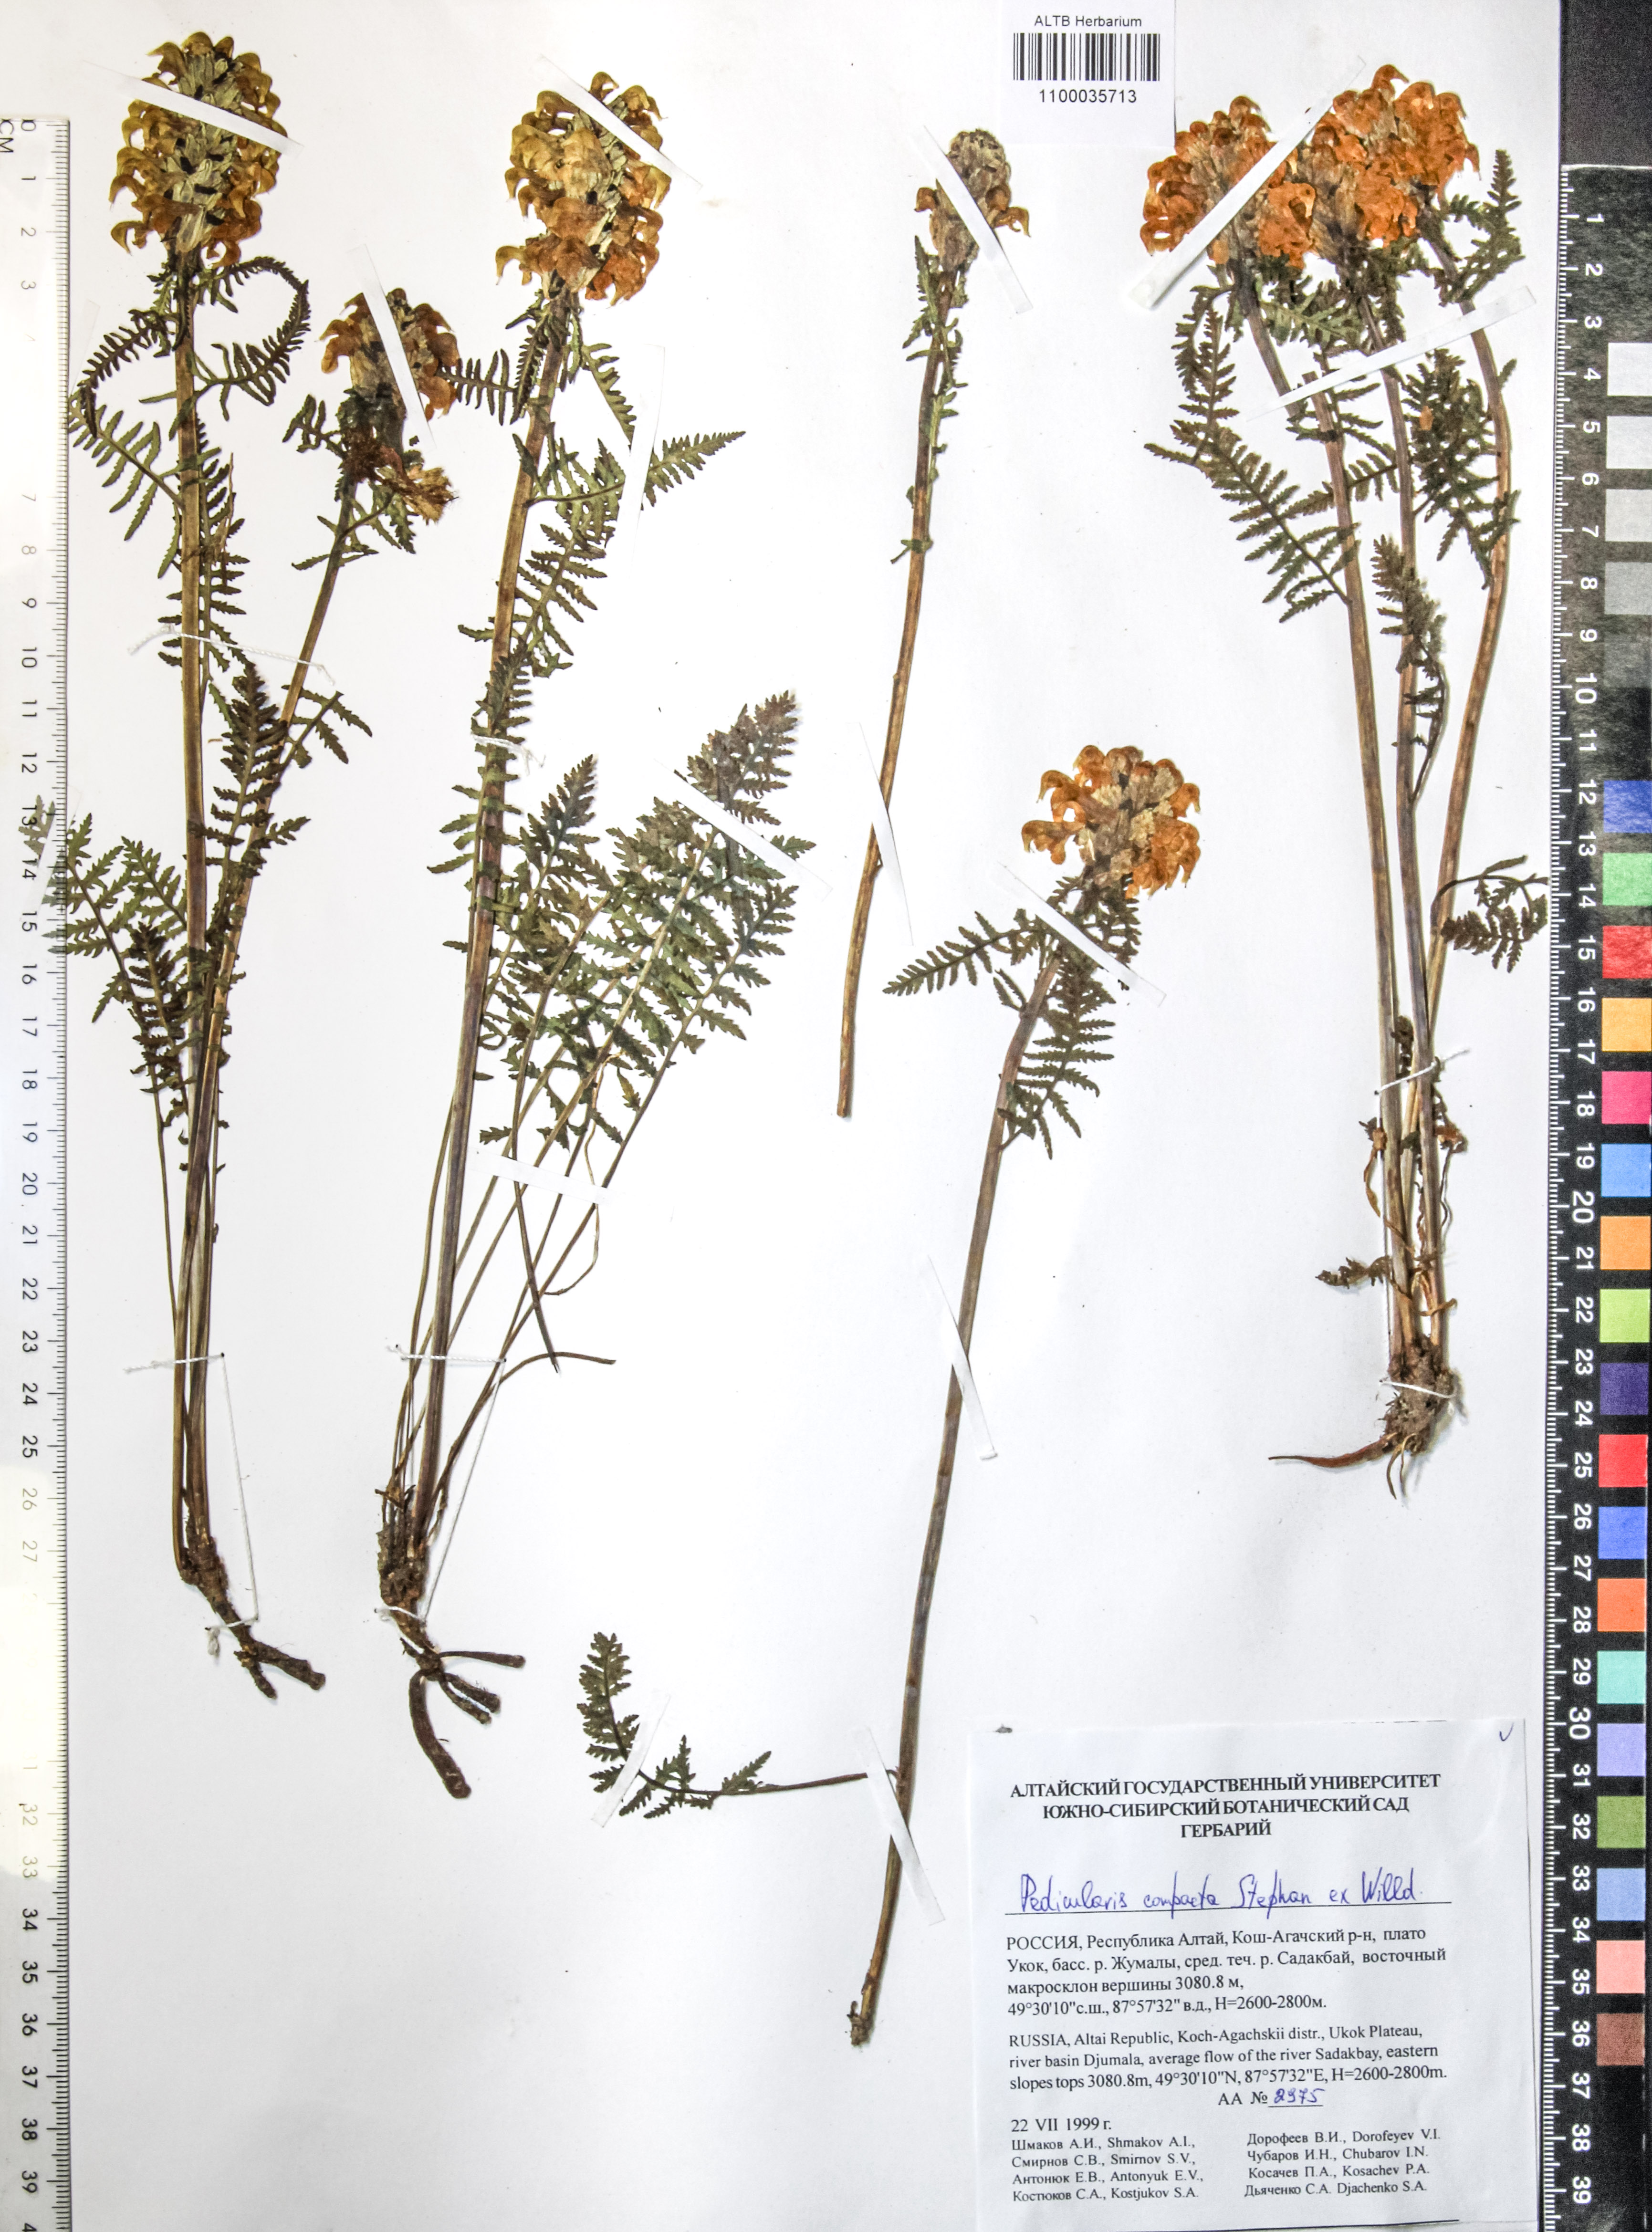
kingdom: Plantae
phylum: Tracheophyta
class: Magnoliopsida
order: Lamiales
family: Orobanchaceae
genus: Pedicularis
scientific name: Pedicularis compacta
